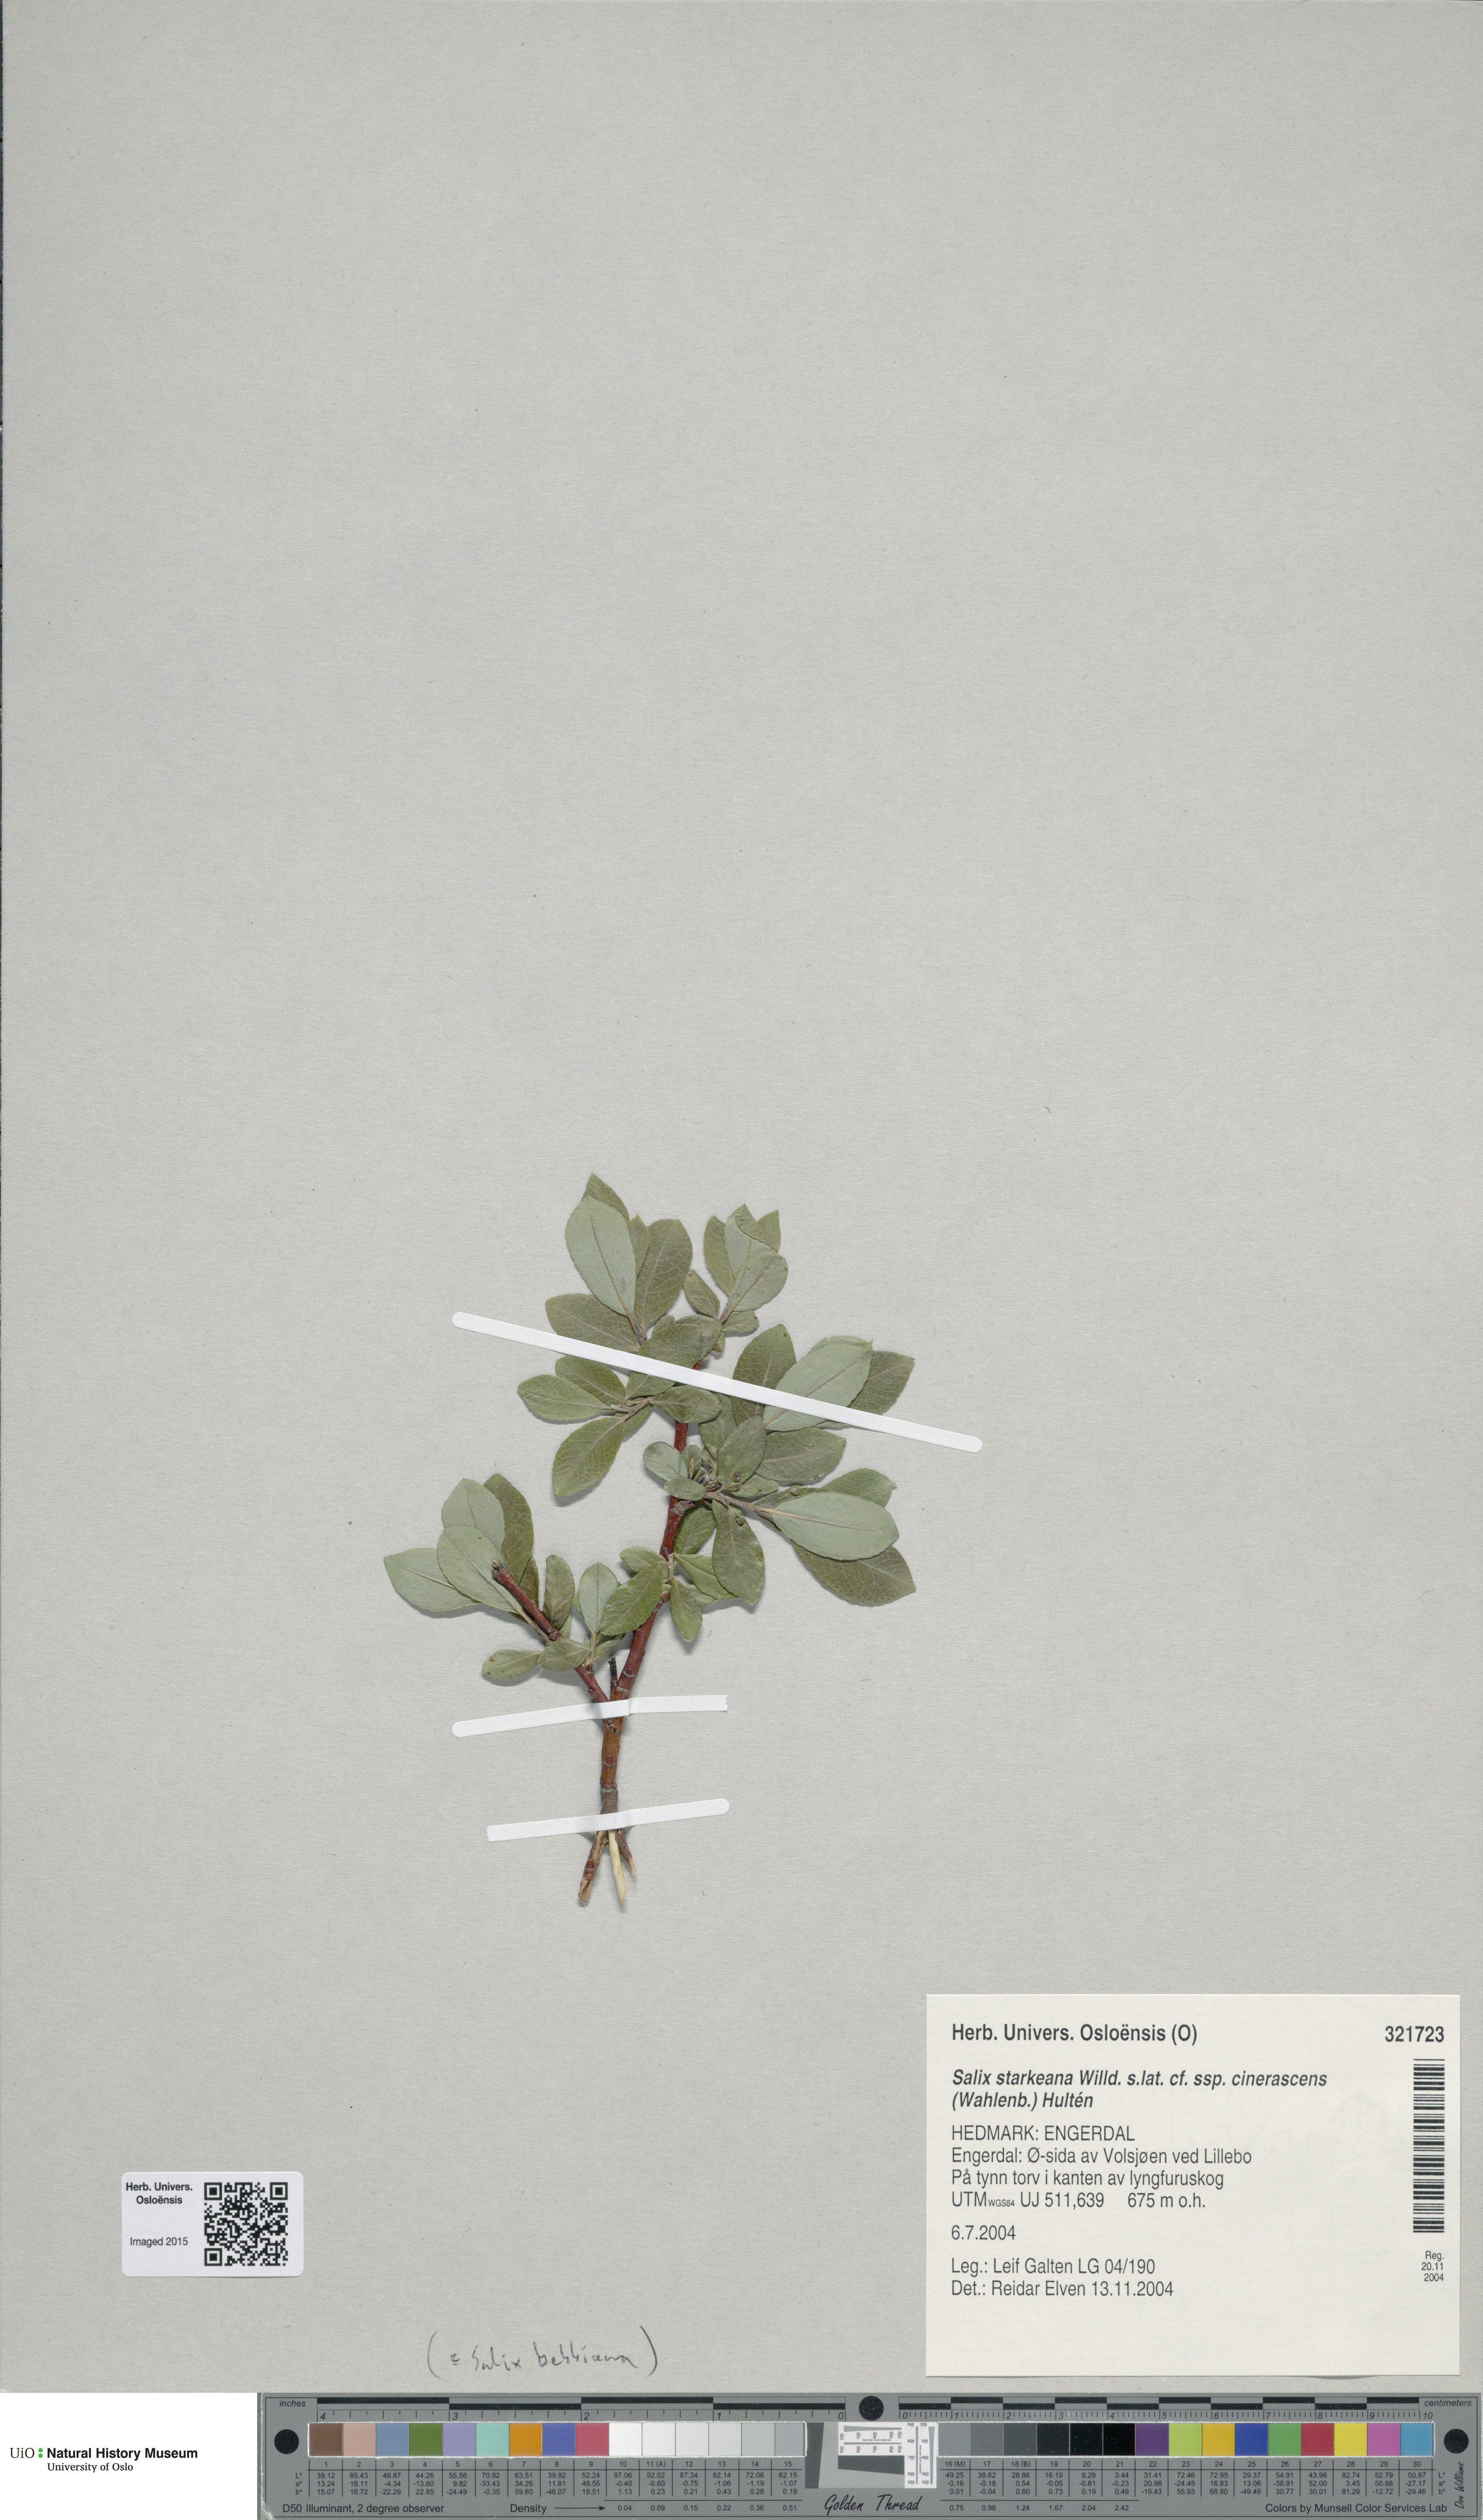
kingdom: Plantae
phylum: Tracheophyta
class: Magnoliopsida
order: Malpighiales
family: Salicaceae
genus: Salix
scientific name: Salix bebbiana
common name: Bebb's willow
